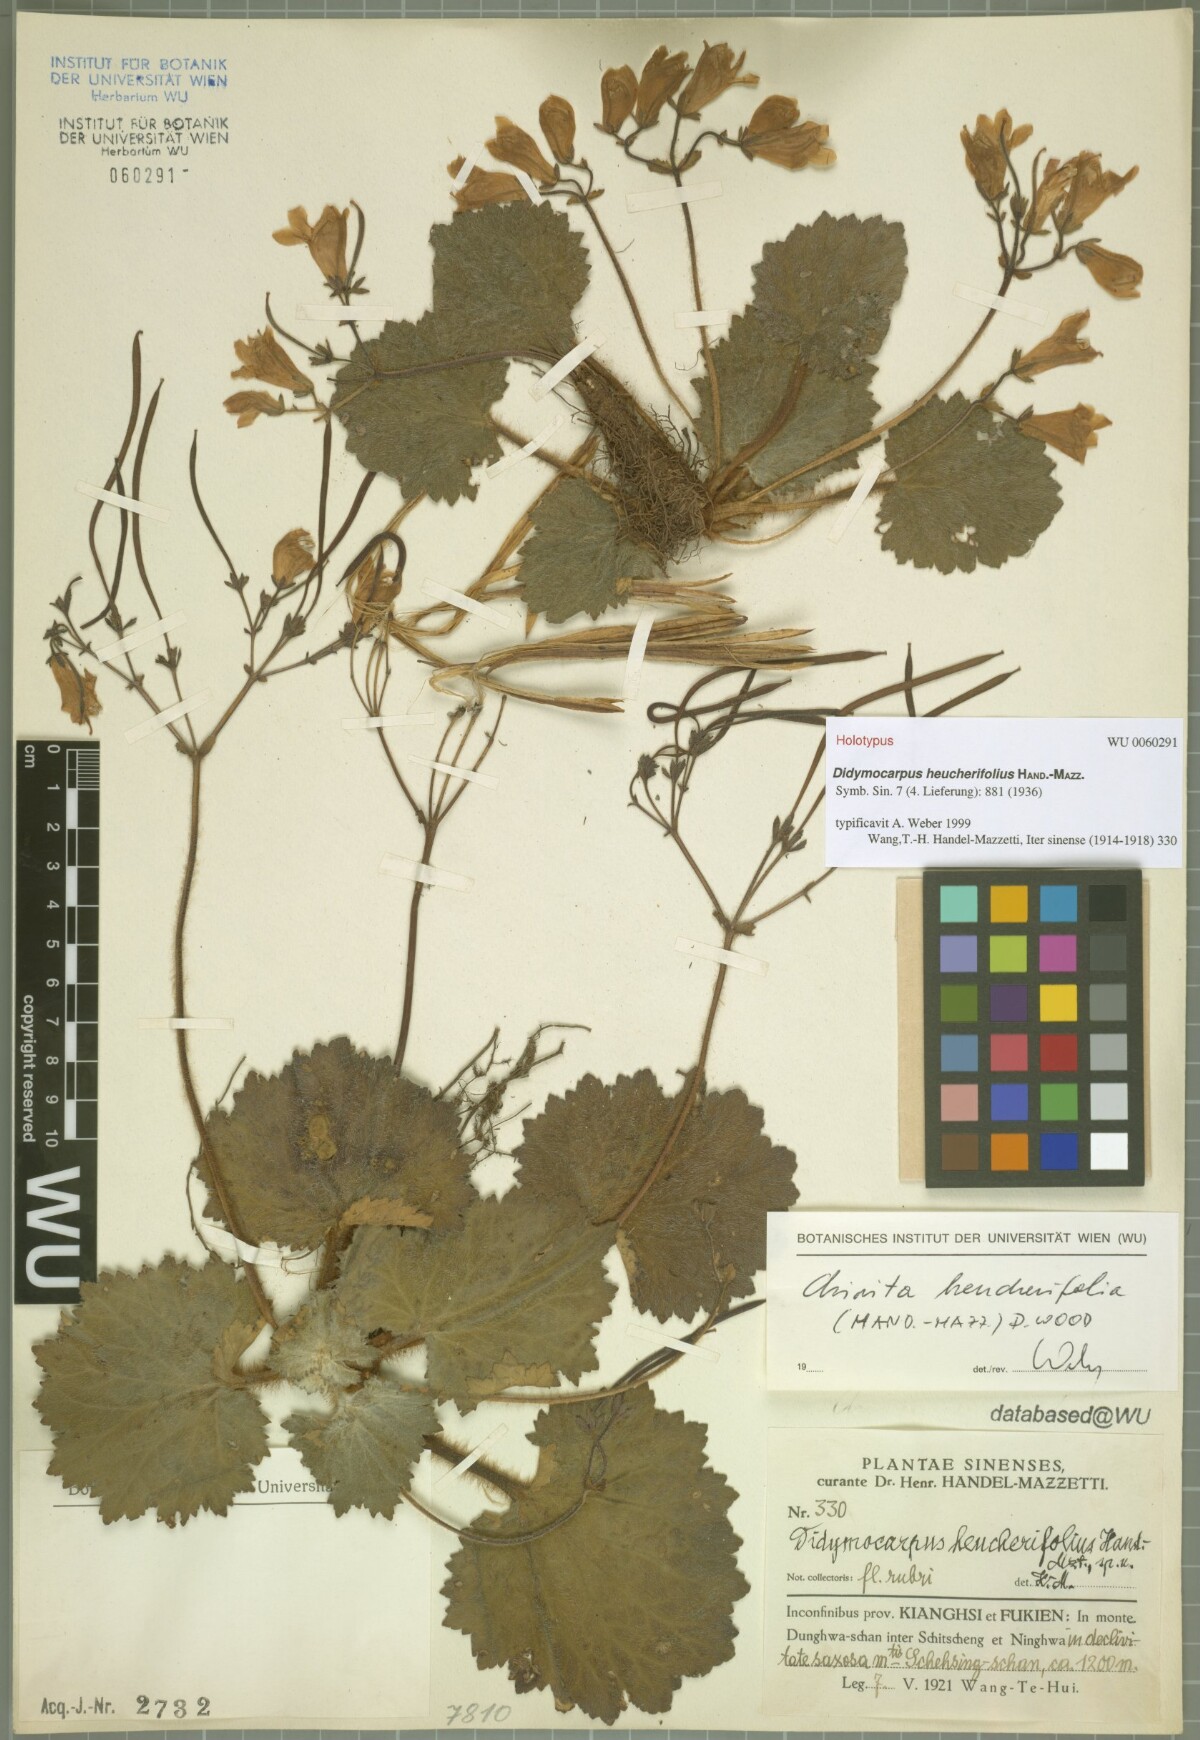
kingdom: Plantae
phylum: Tracheophyta
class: Magnoliopsida
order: Lamiales
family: Gesneriaceae
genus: Didymocarpus
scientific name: Didymocarpus heucherifolius
